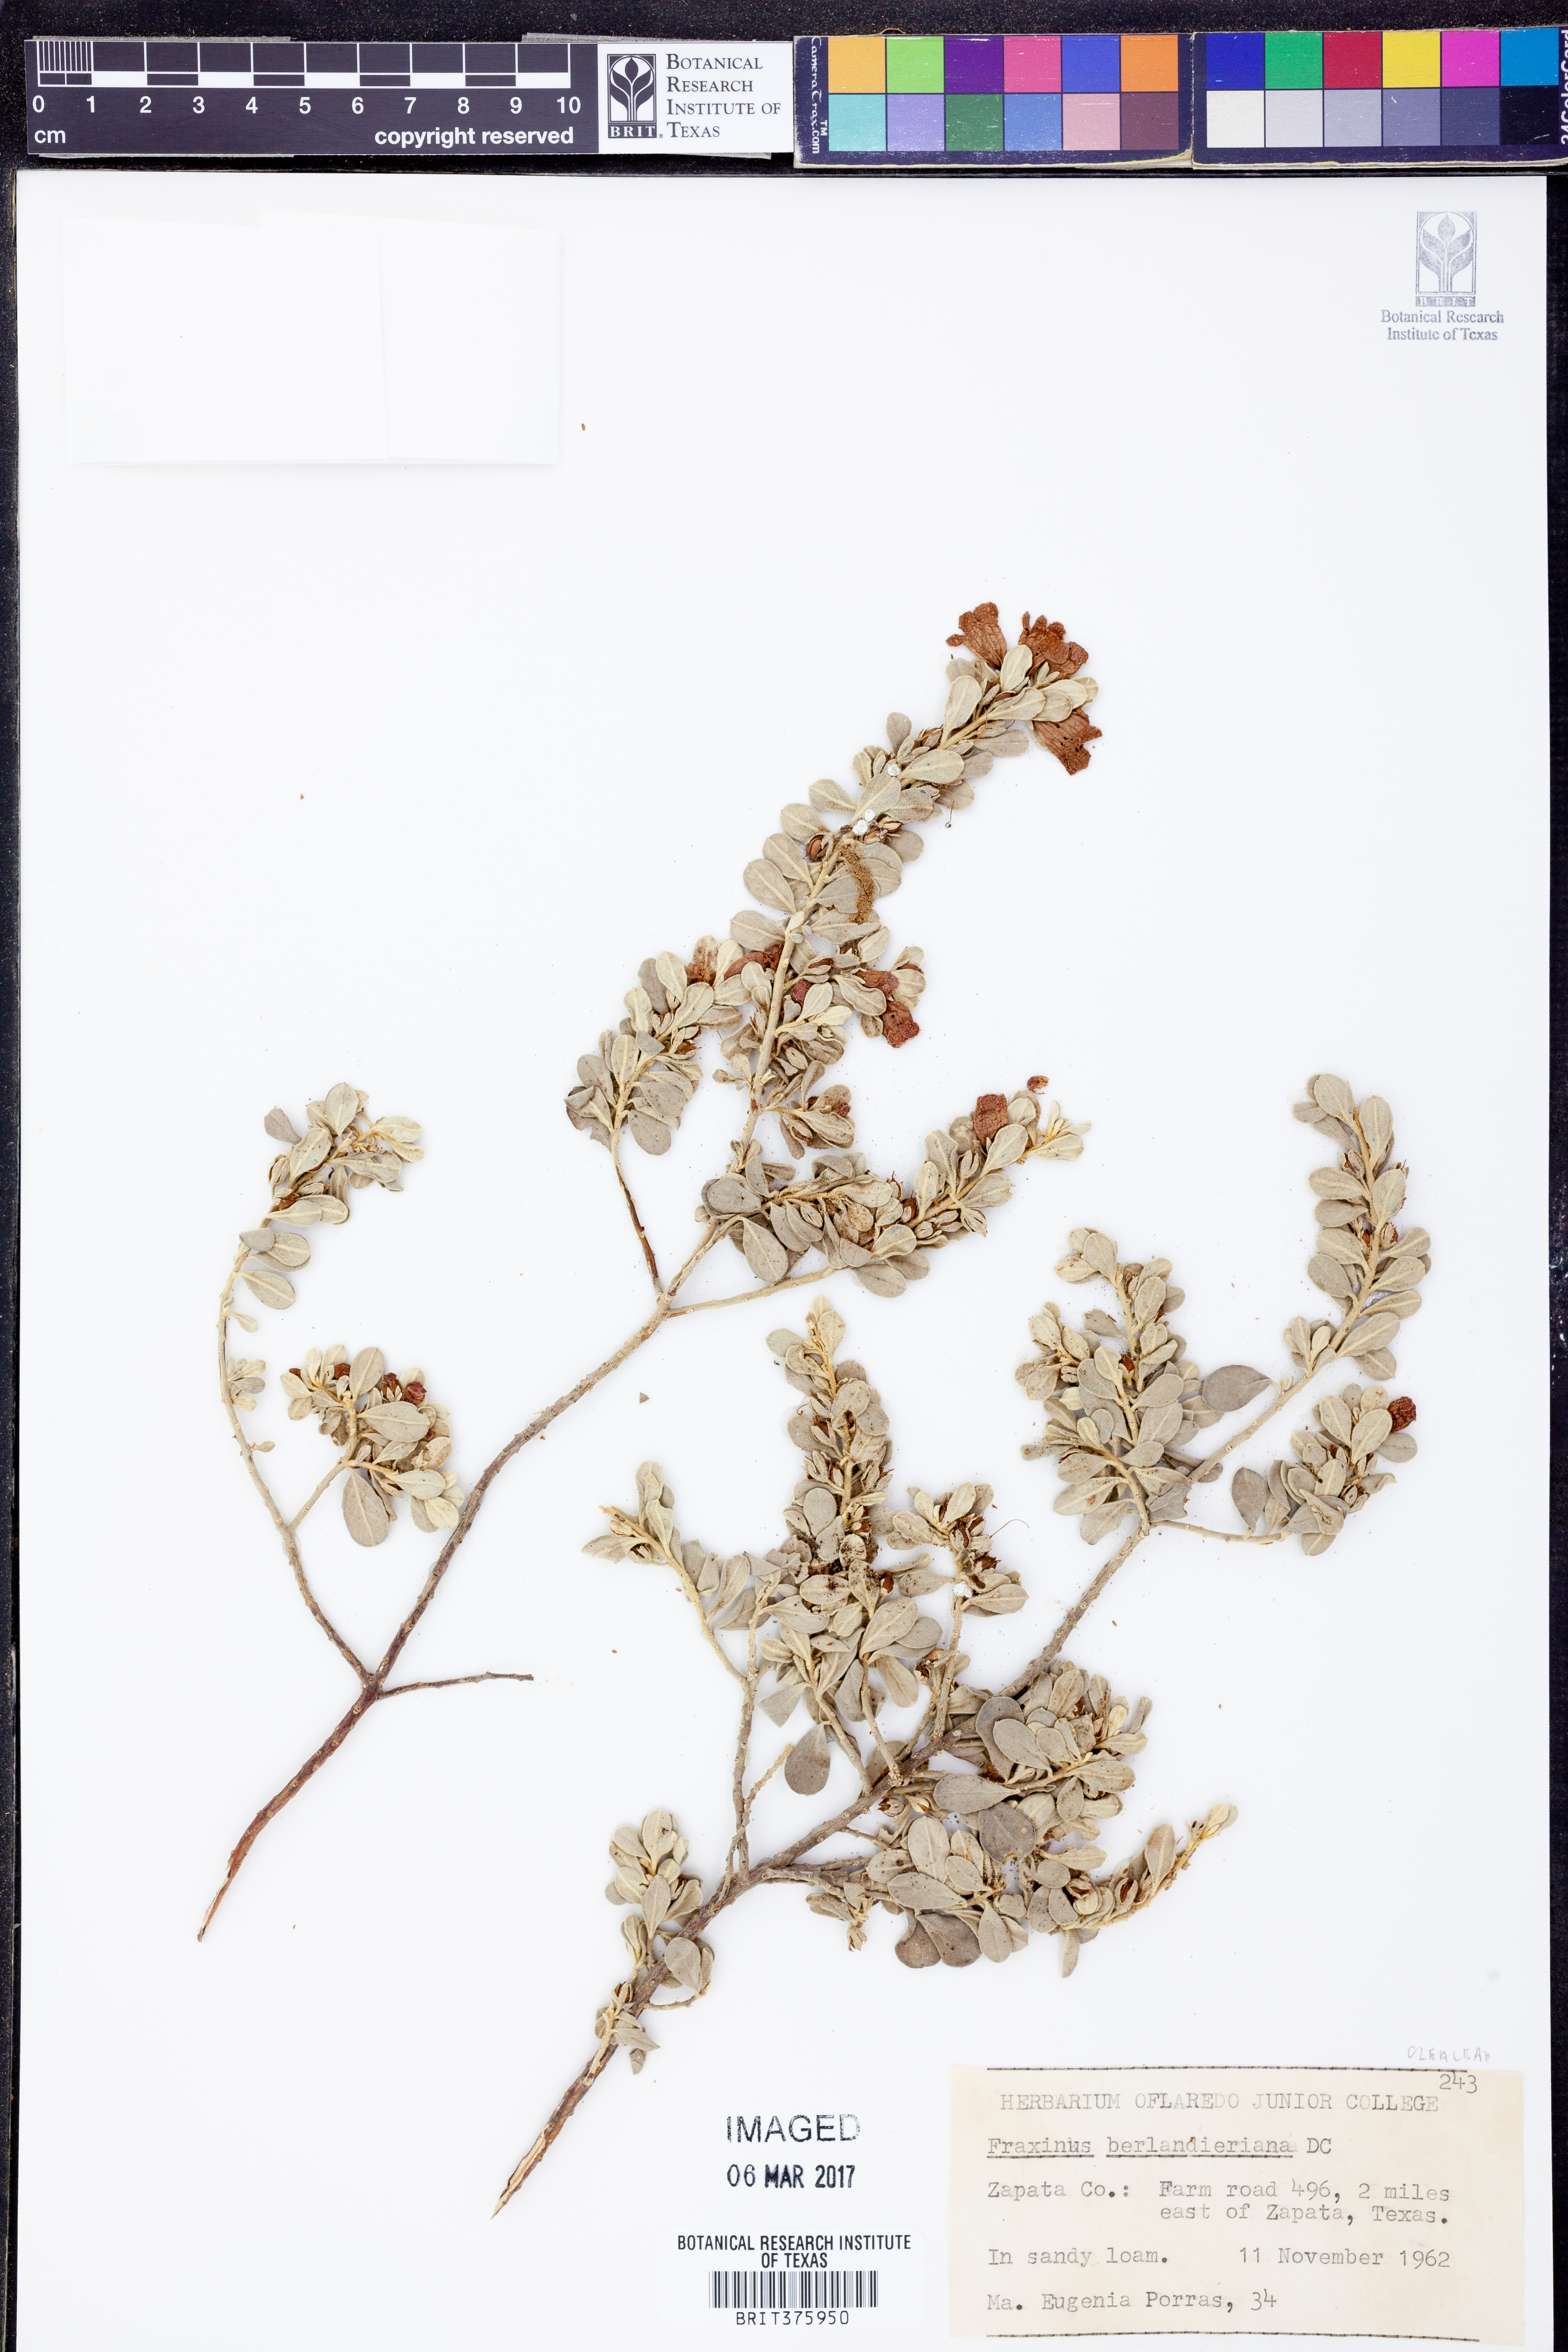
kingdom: Plantae
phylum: Tracheophyta
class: Magnoliopsida
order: Lamiales
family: Oleaceae
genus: Fraxinus
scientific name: Fraxinus berlandieriana
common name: Berlandier ash
